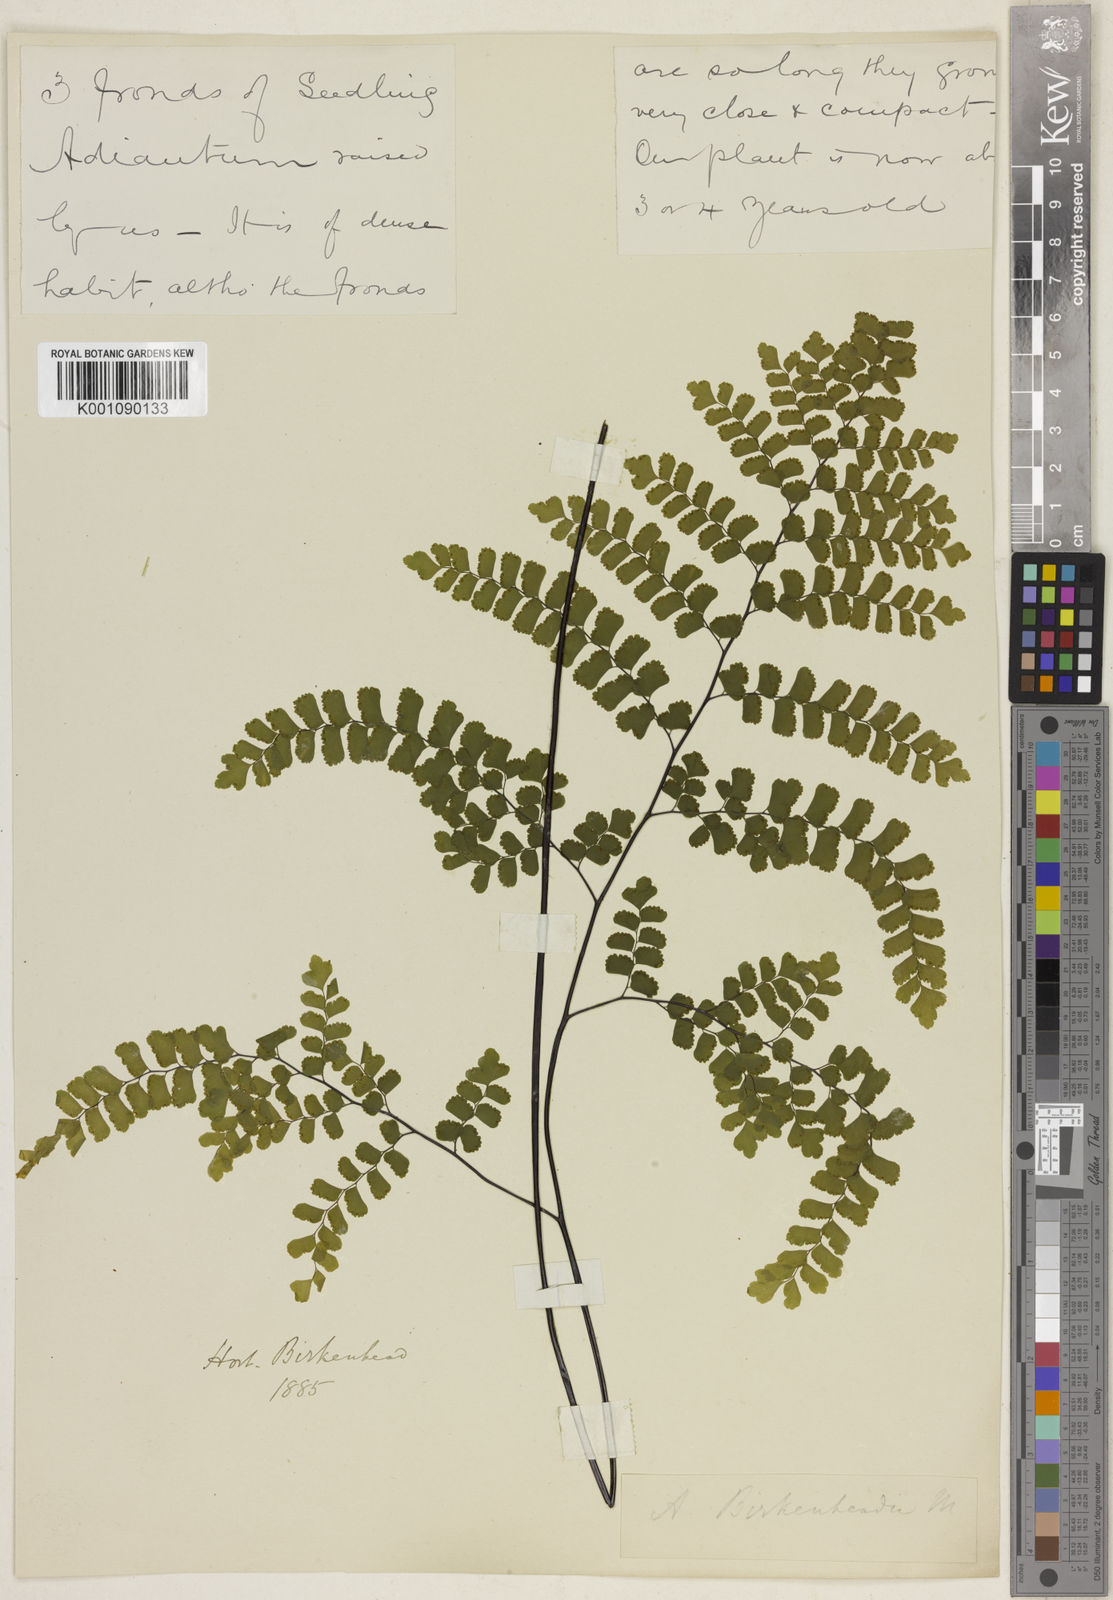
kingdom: Plantae
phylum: Tracheophyta
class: Polypodiopsida
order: Polypodiales
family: Pteridaceae
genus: Adiantum
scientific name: Adiantum concinnum
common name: Brittle maidenhair fern
